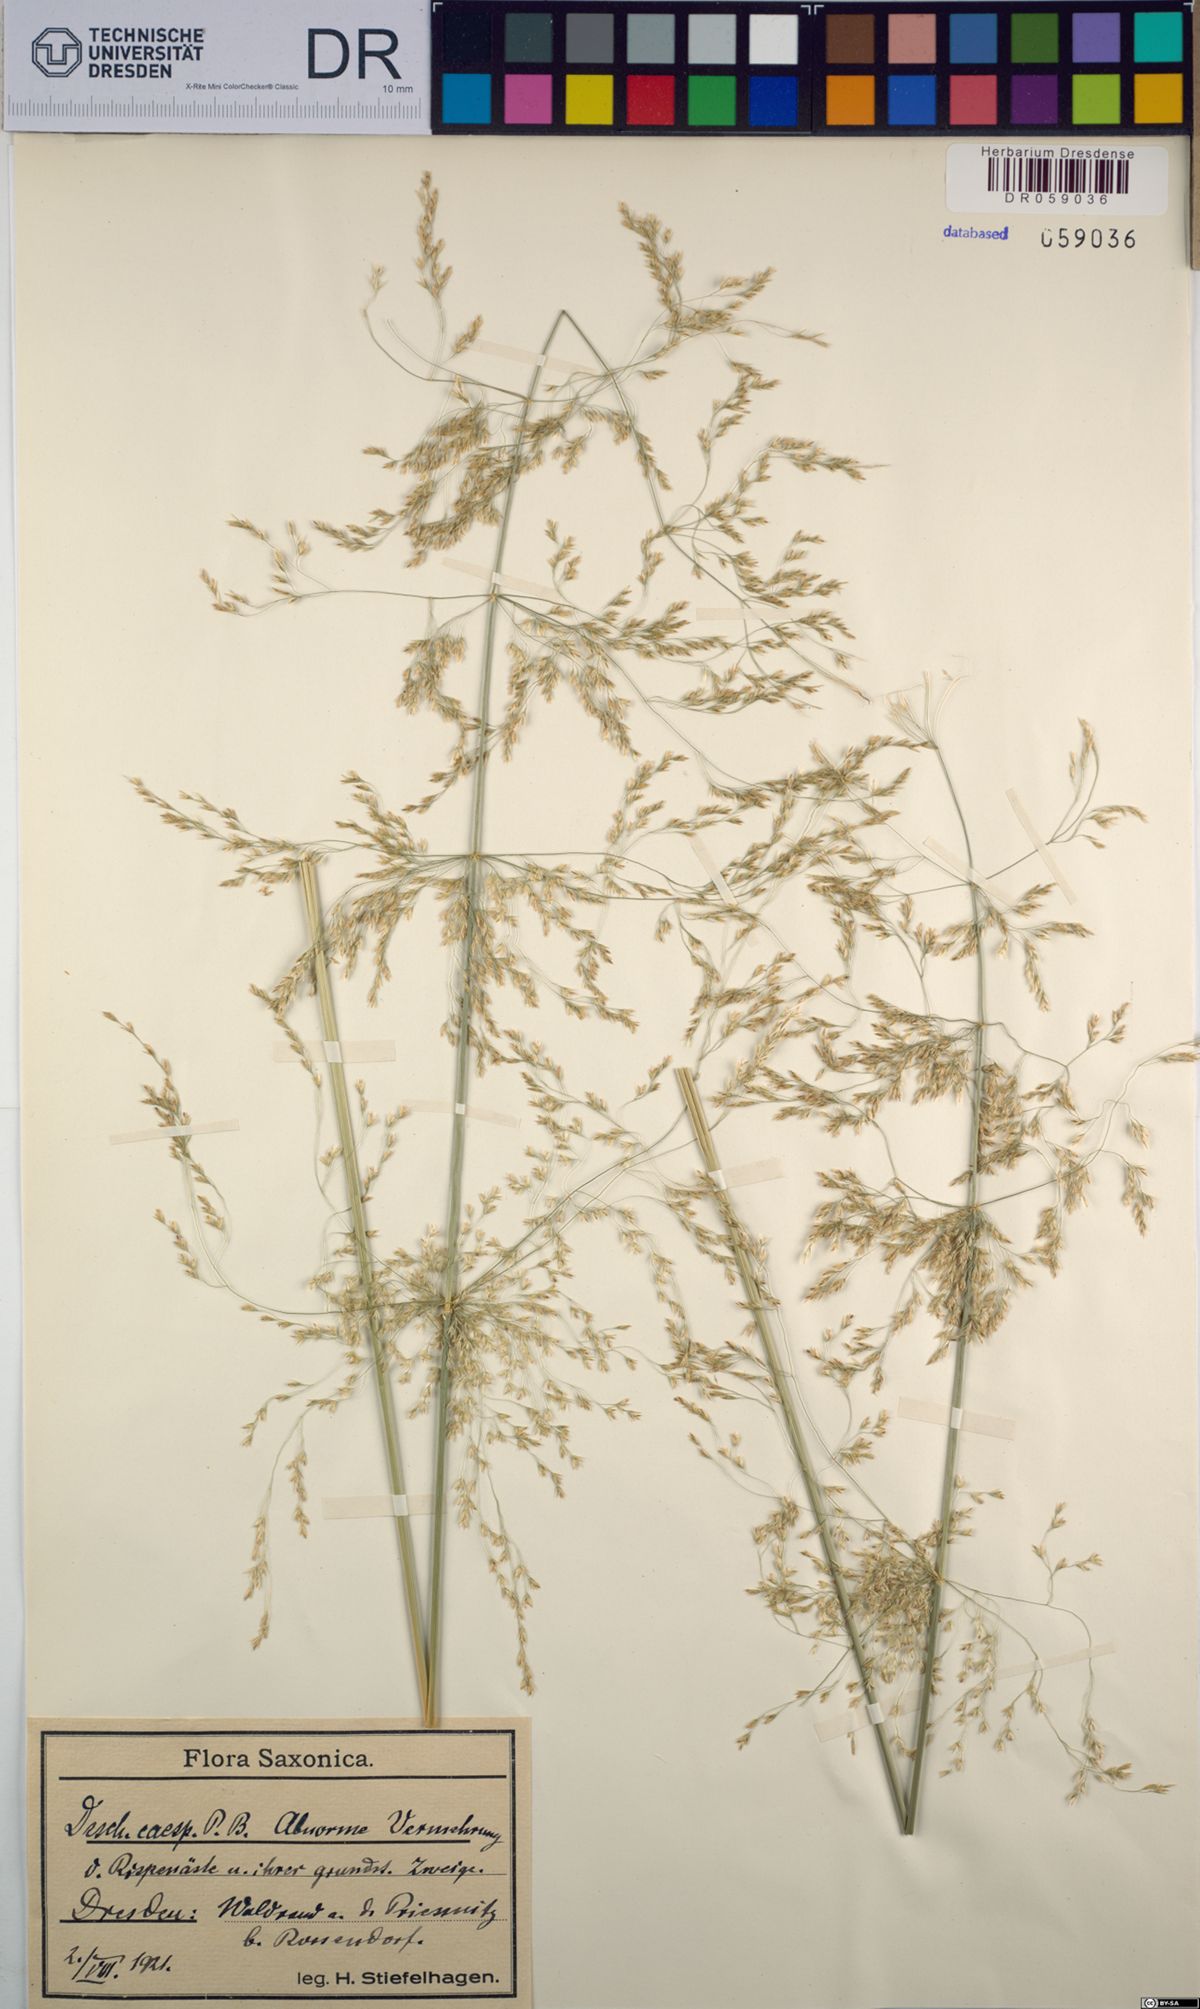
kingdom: Plantae
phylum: Tracheophyta
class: Liliopsida
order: Poales
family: Poaceae
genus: Deschampsia
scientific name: Deschampsia cespitosa
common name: Tufted hair-grass
